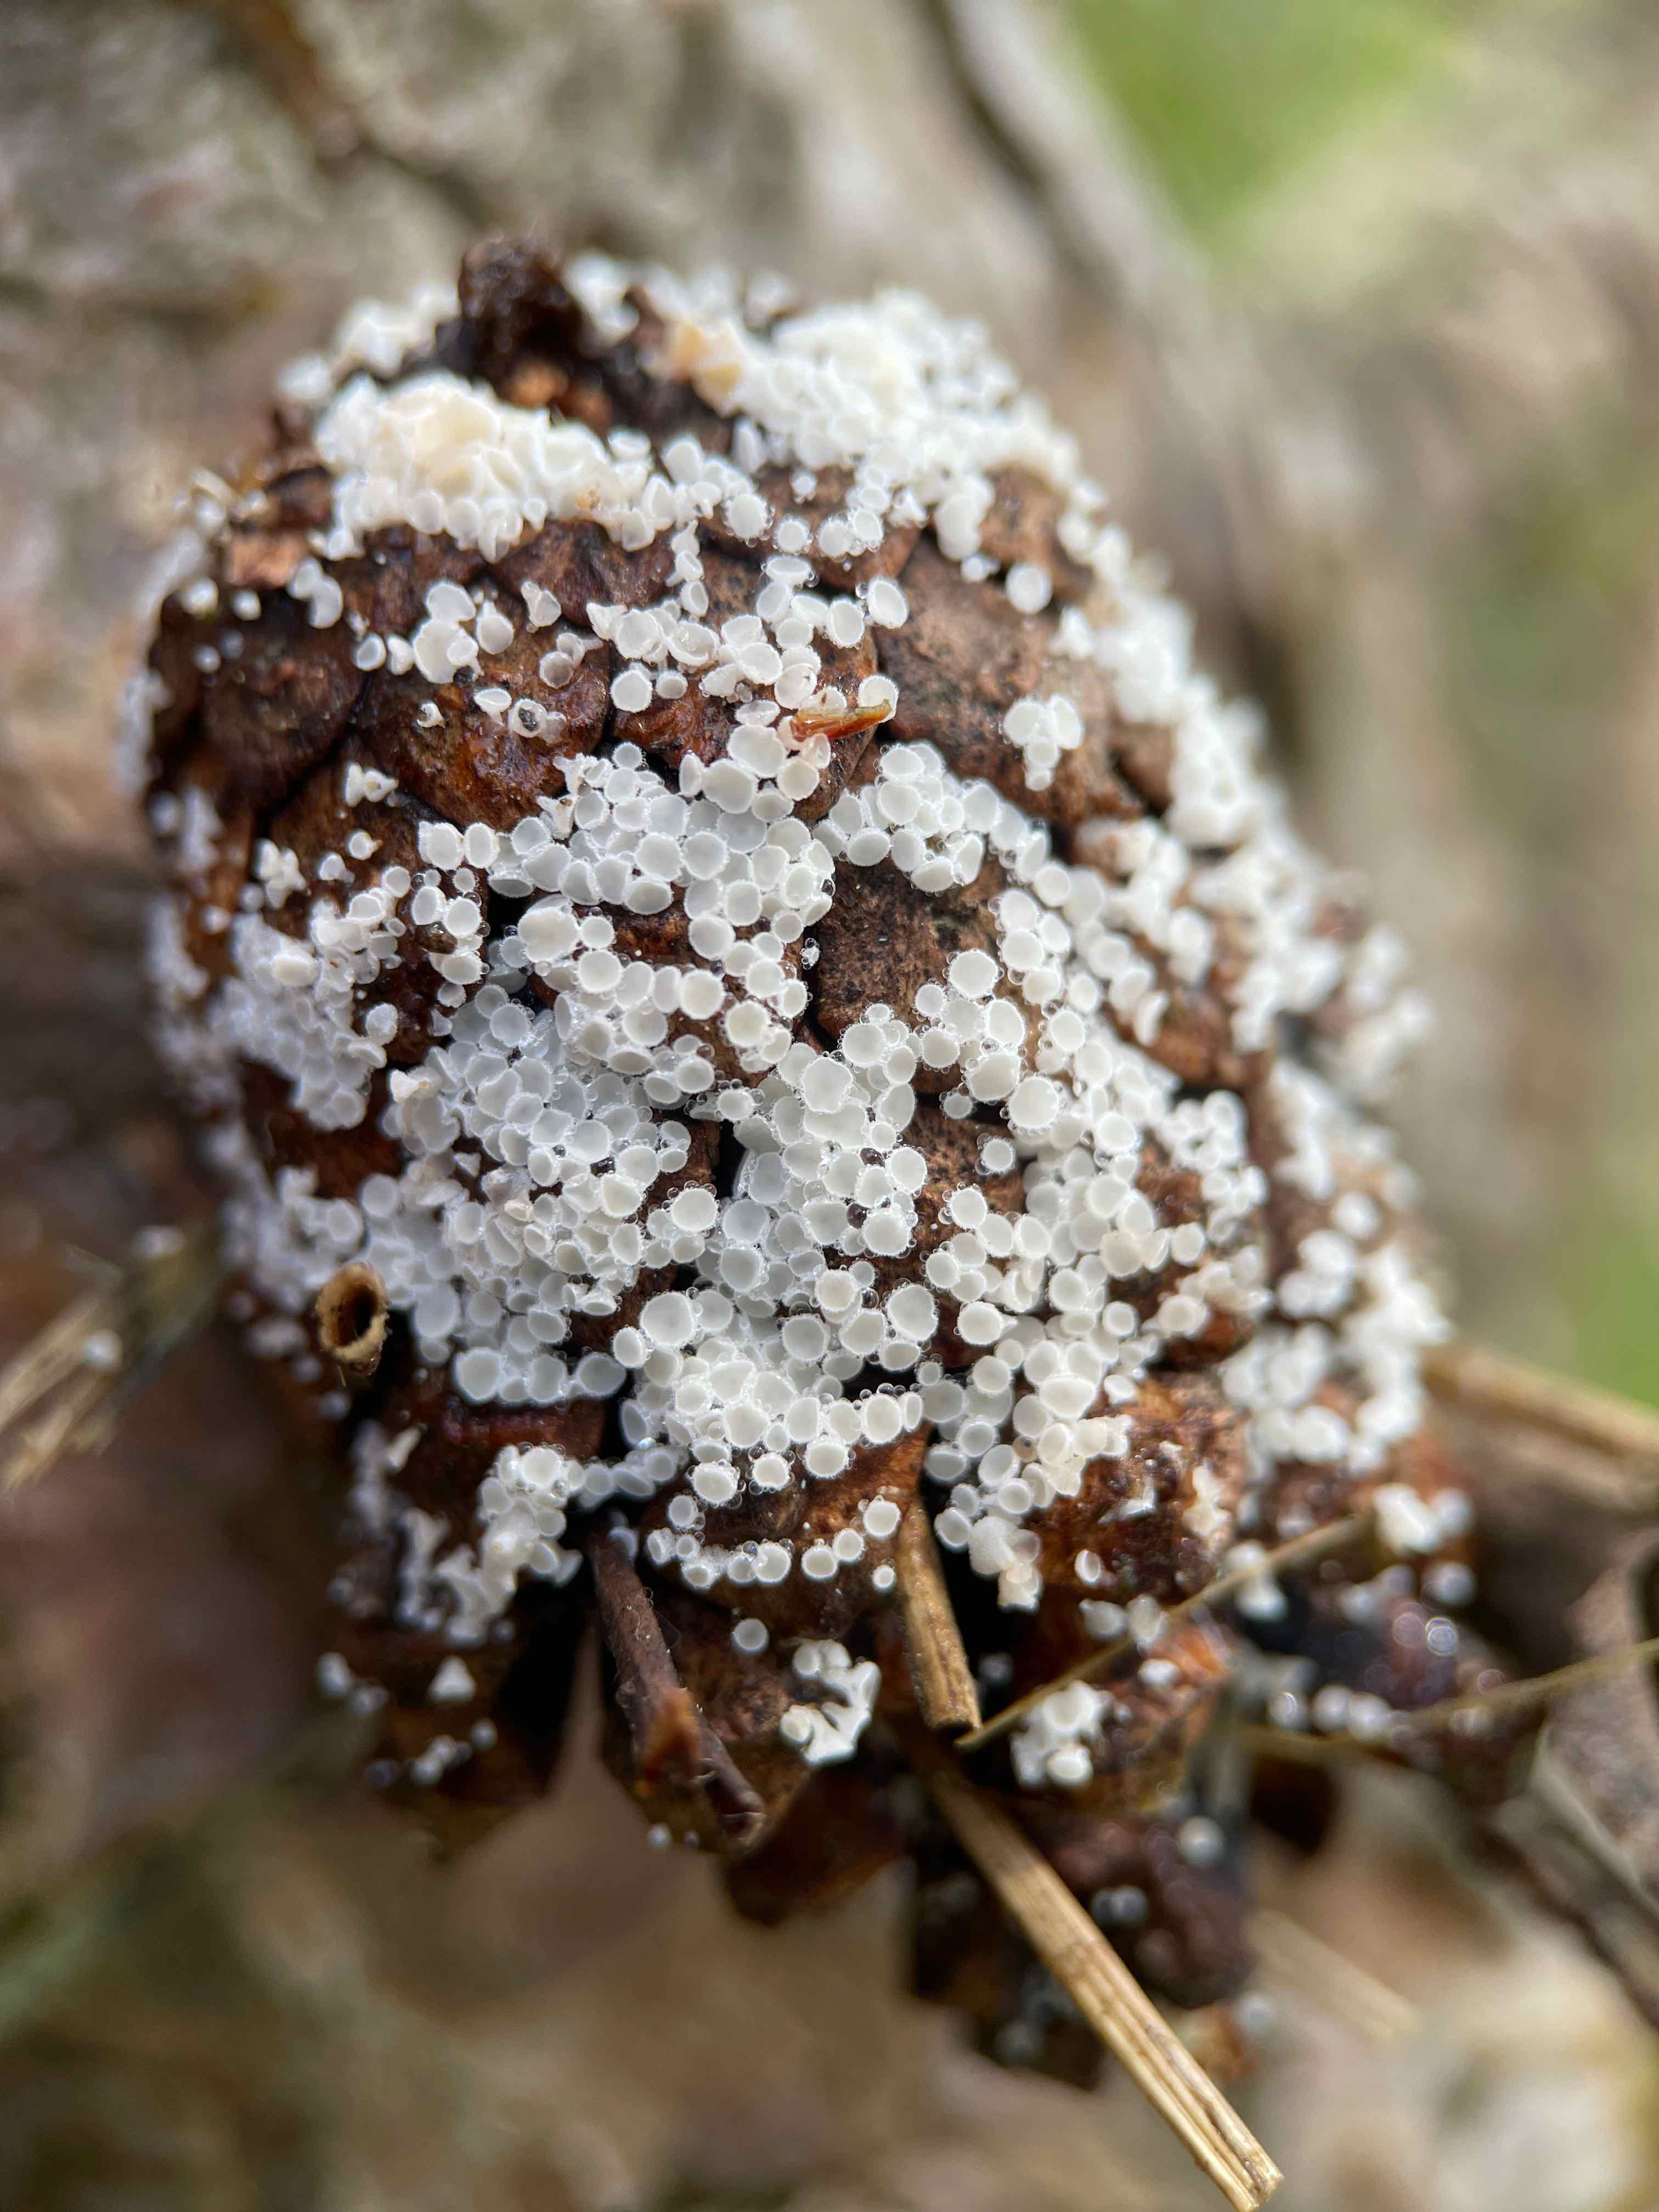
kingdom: Fungi
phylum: Ascomycota
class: Leotiomycetes
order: Helotiales
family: Lachnaceae
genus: Lachnum
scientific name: Lachnum virgineum
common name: jomfru-frynseskive
